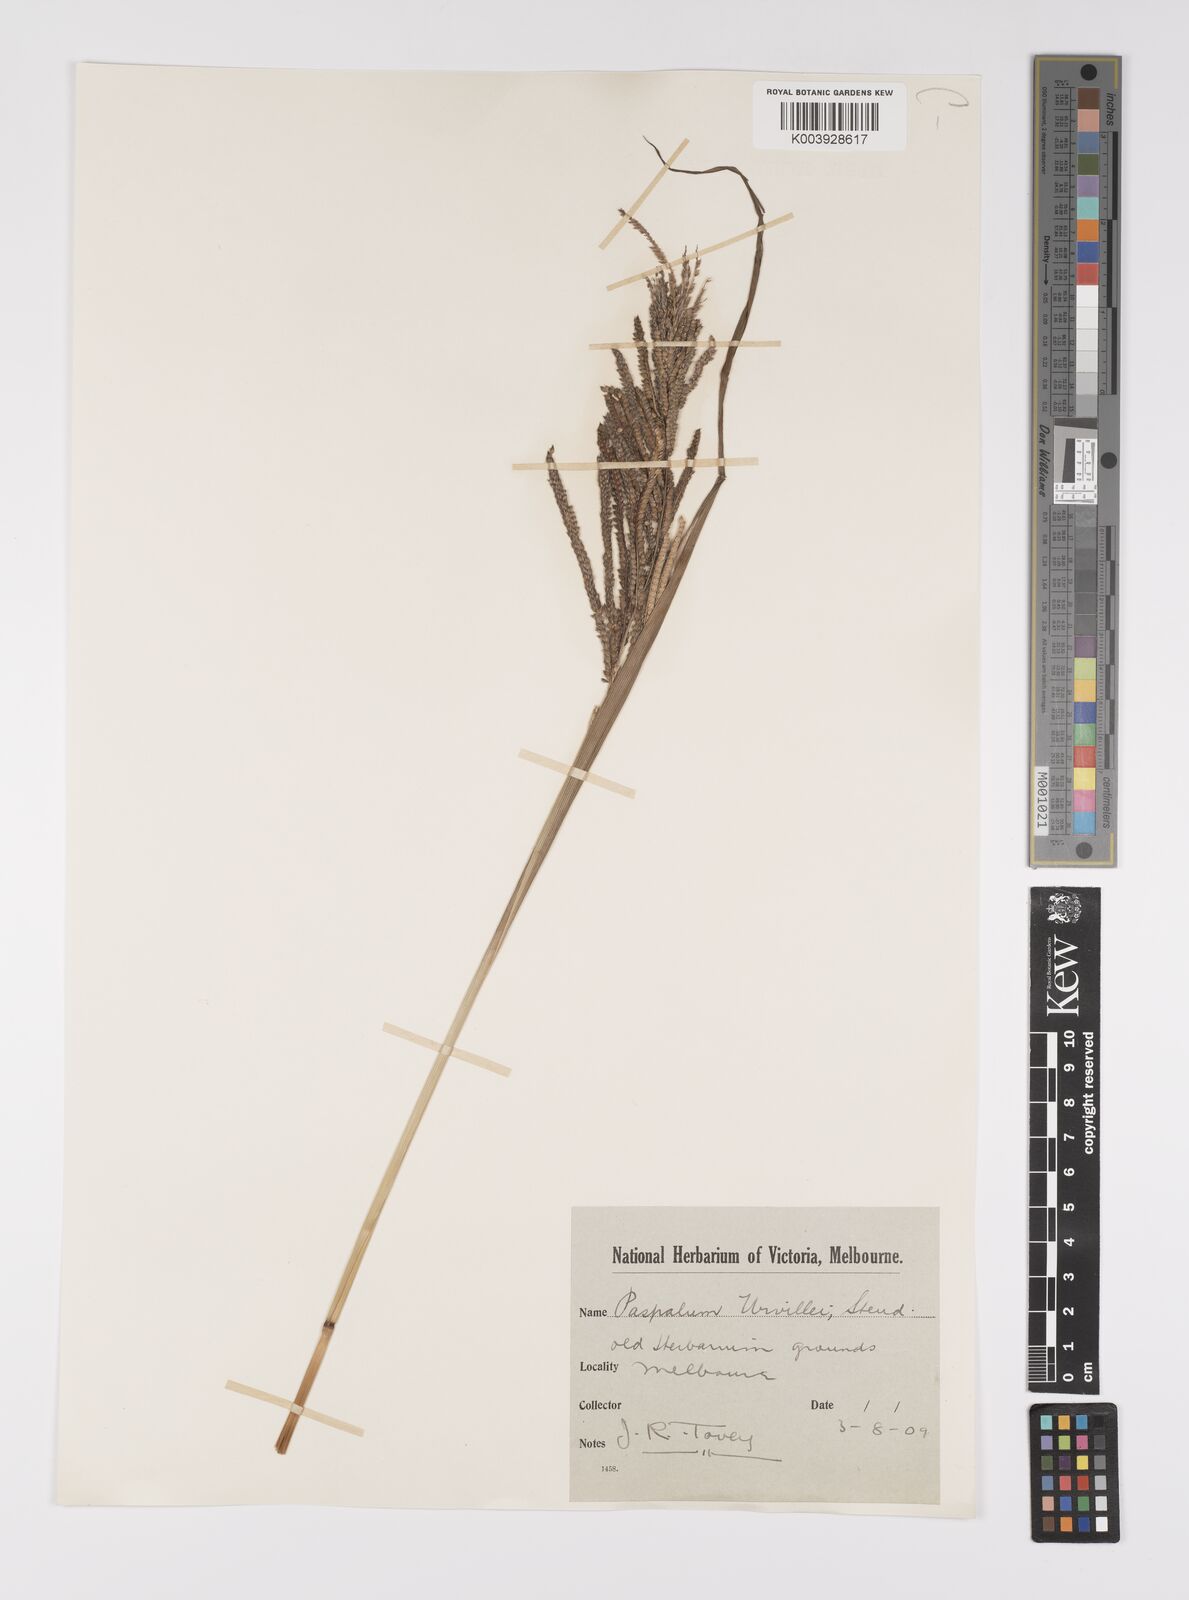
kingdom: Plantae
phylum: Tracheophyta
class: Liliopsida
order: Poales
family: Poaceae
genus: Paspalum
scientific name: Paspalum urvillei
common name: Vasey's grass
